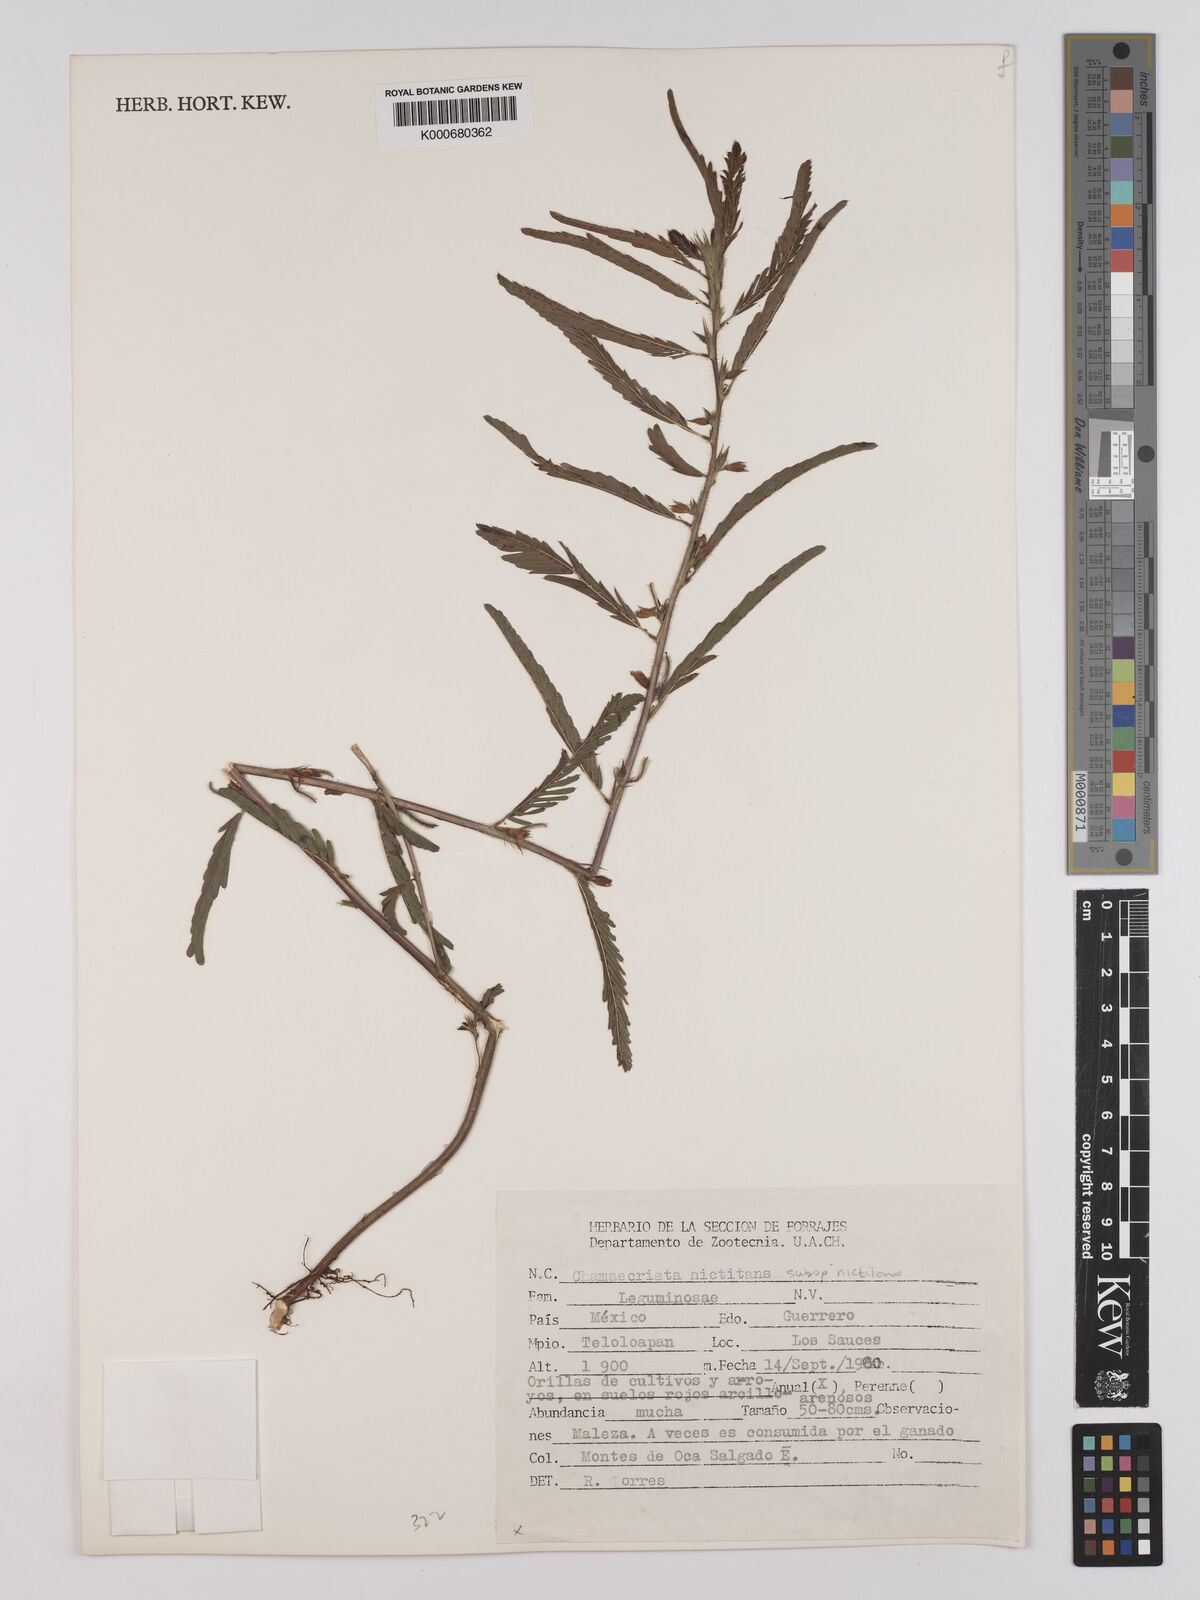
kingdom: Plantae
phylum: Tracheophyta
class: Magnoliopsida
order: Fabales
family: Fabaceae
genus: Chamaecrista
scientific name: Chamaecrista nictitans
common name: Sensitive cassia
